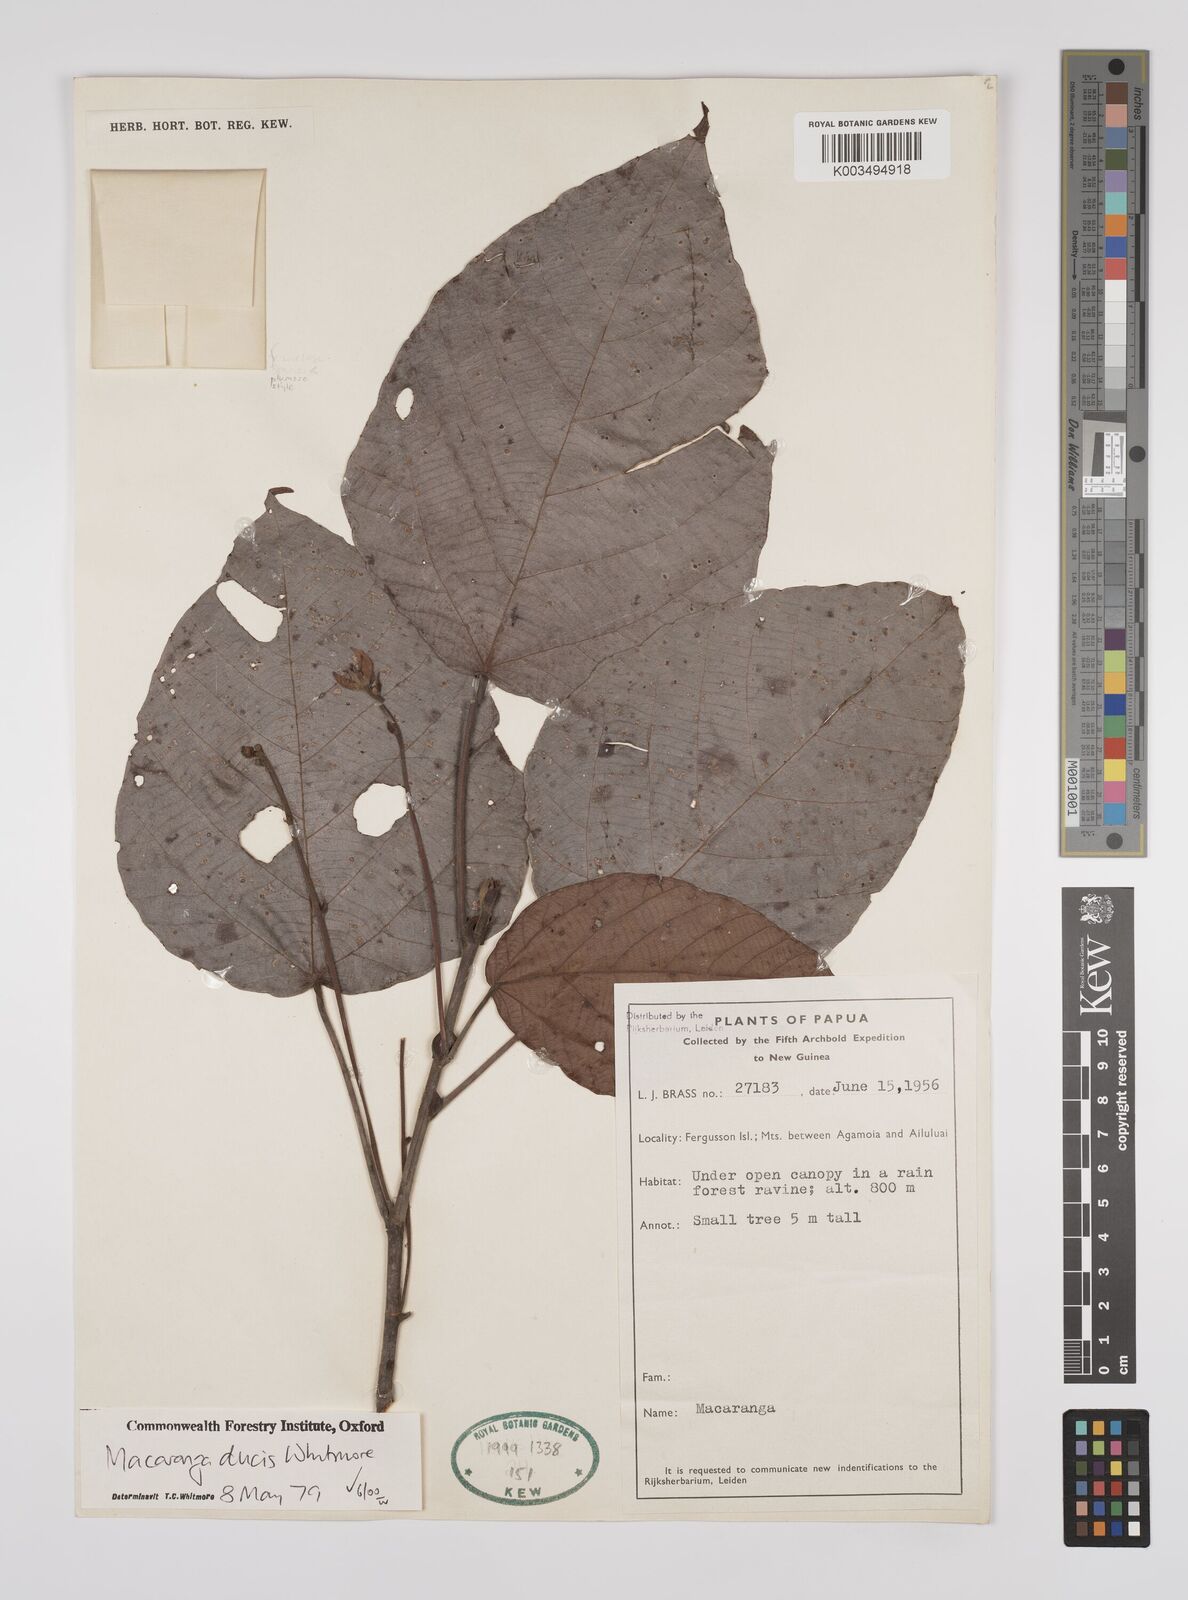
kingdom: Plantae
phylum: Tracheophyta
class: Magnoliopsida
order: Malpighiales
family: Euphorbiaceae
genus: Macaranga
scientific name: Macaranga ducis
